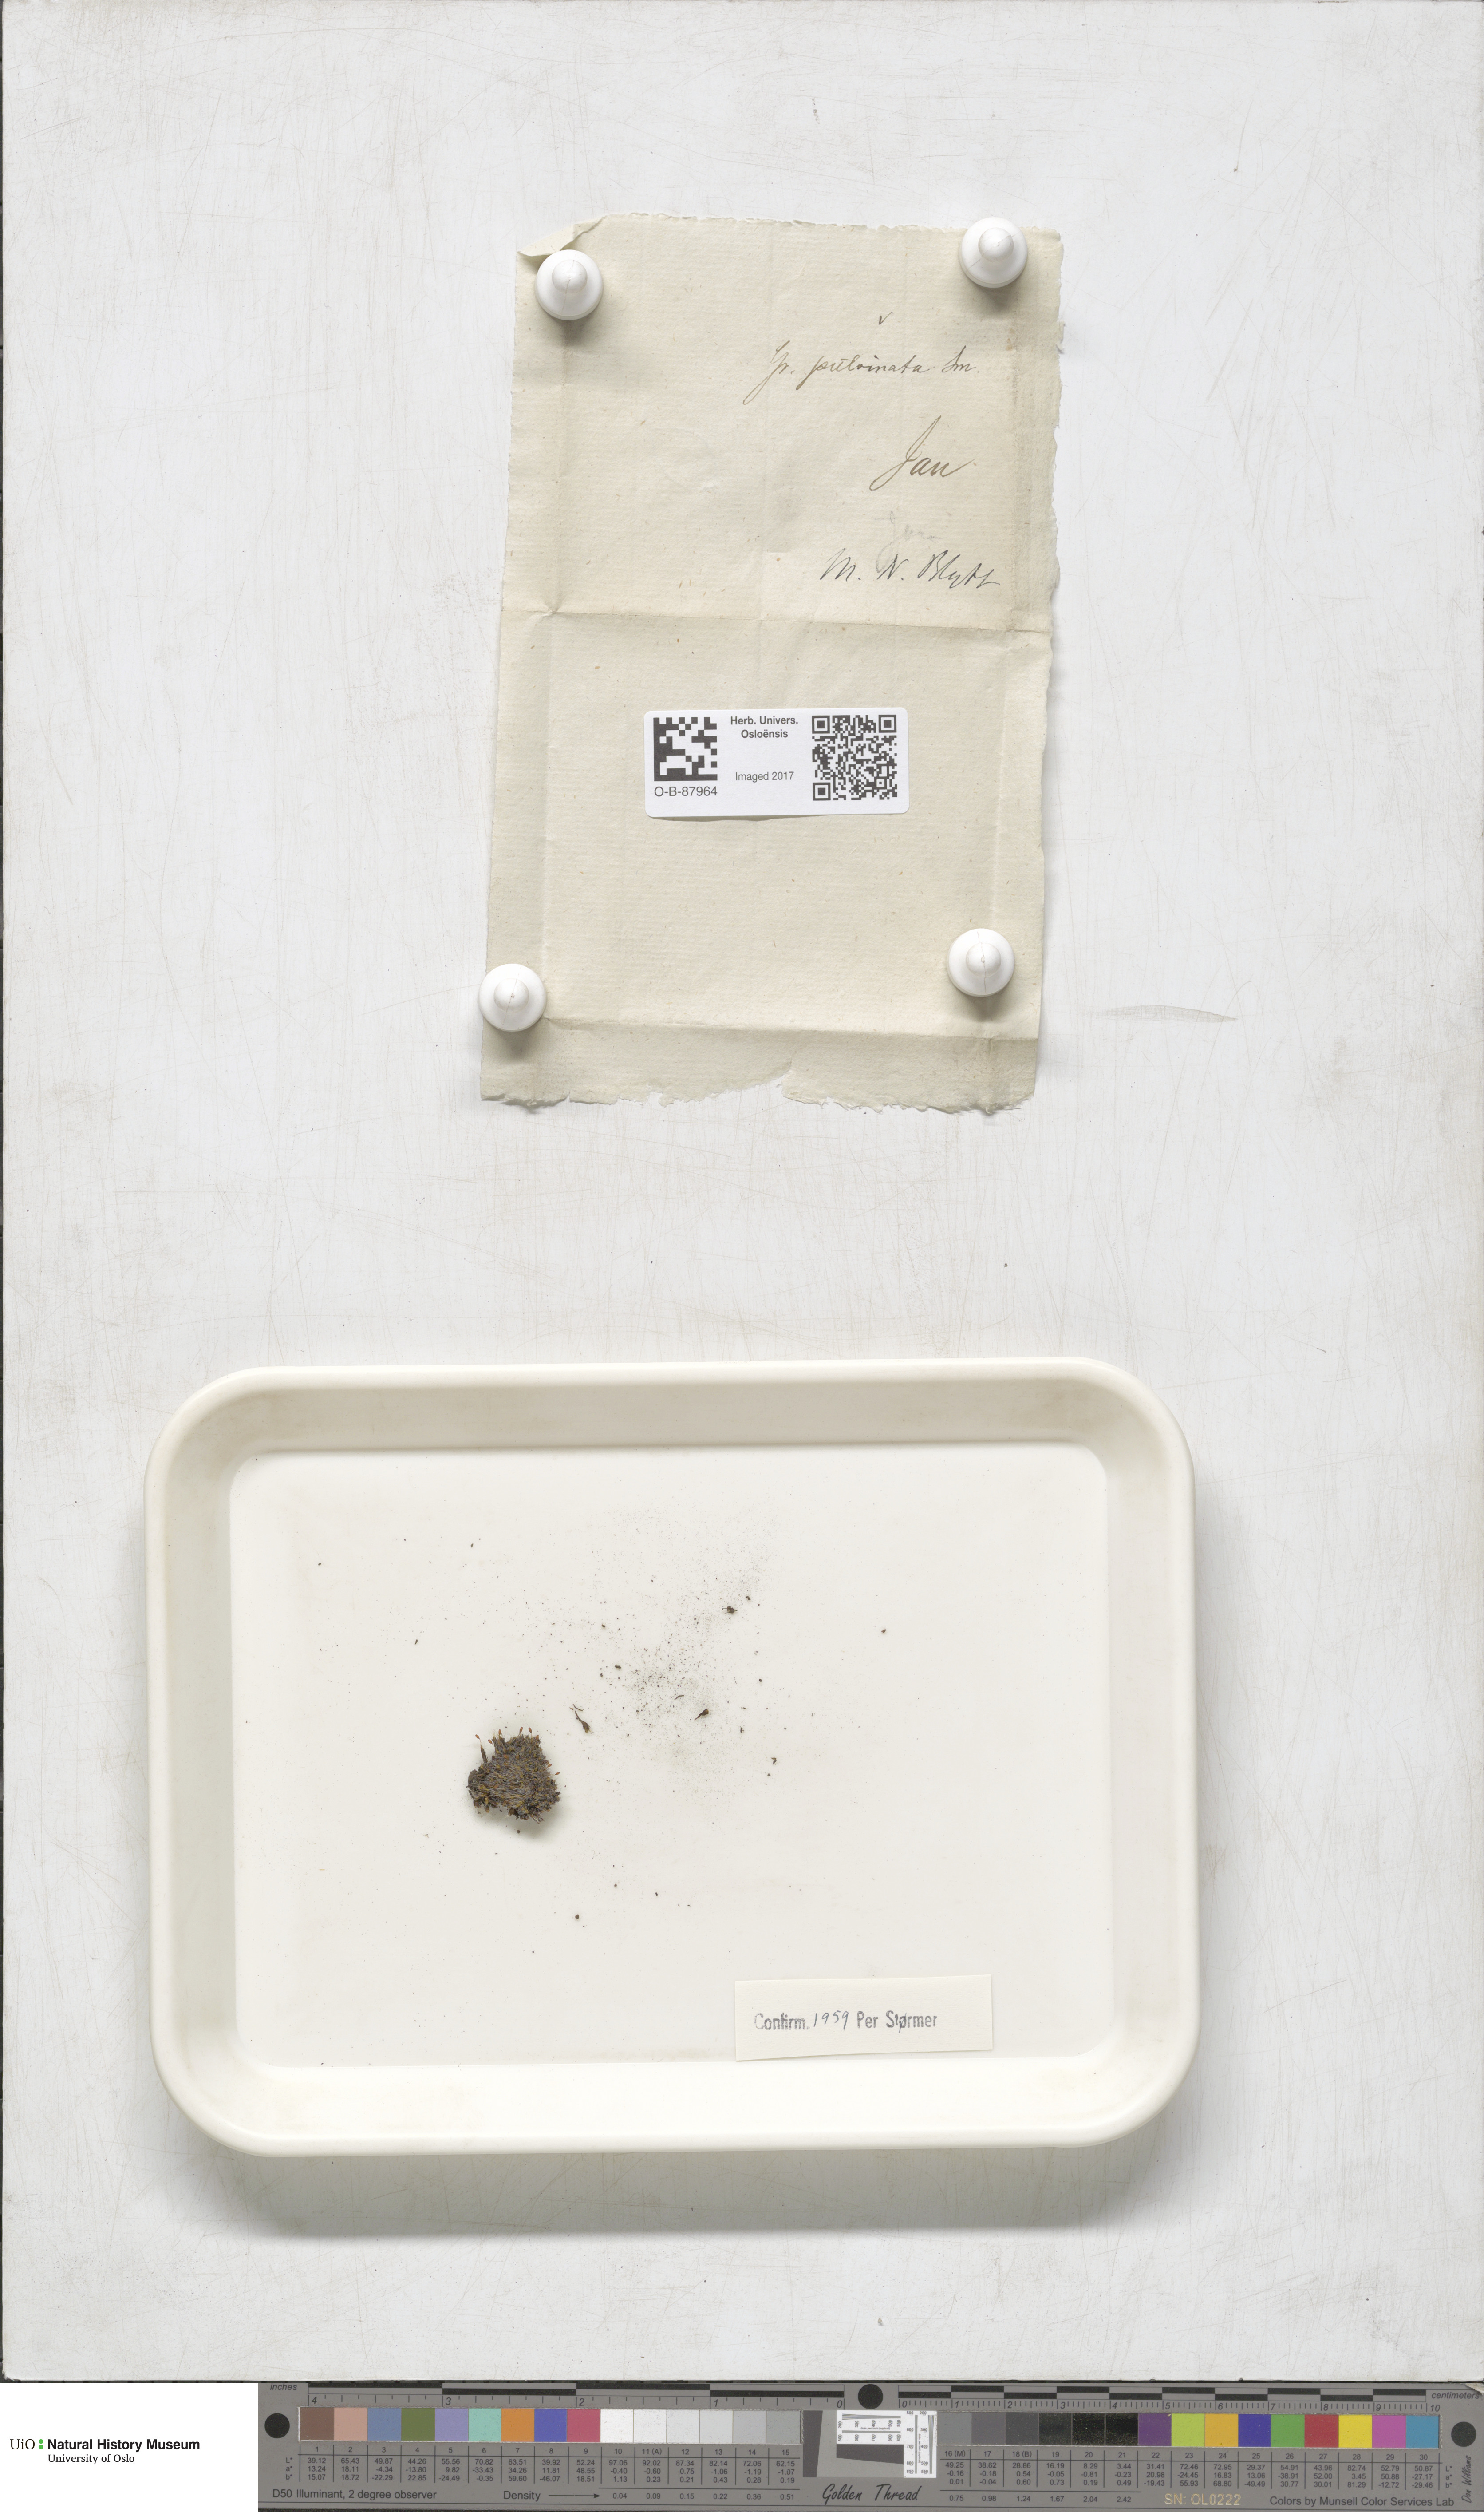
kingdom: Plantae
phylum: Bryophyta
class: Bryopsida
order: Grimmiales
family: Grimmiaceae
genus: Grimmia
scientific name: Grimmia pulvinata
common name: Grey-cushioned grimmia
